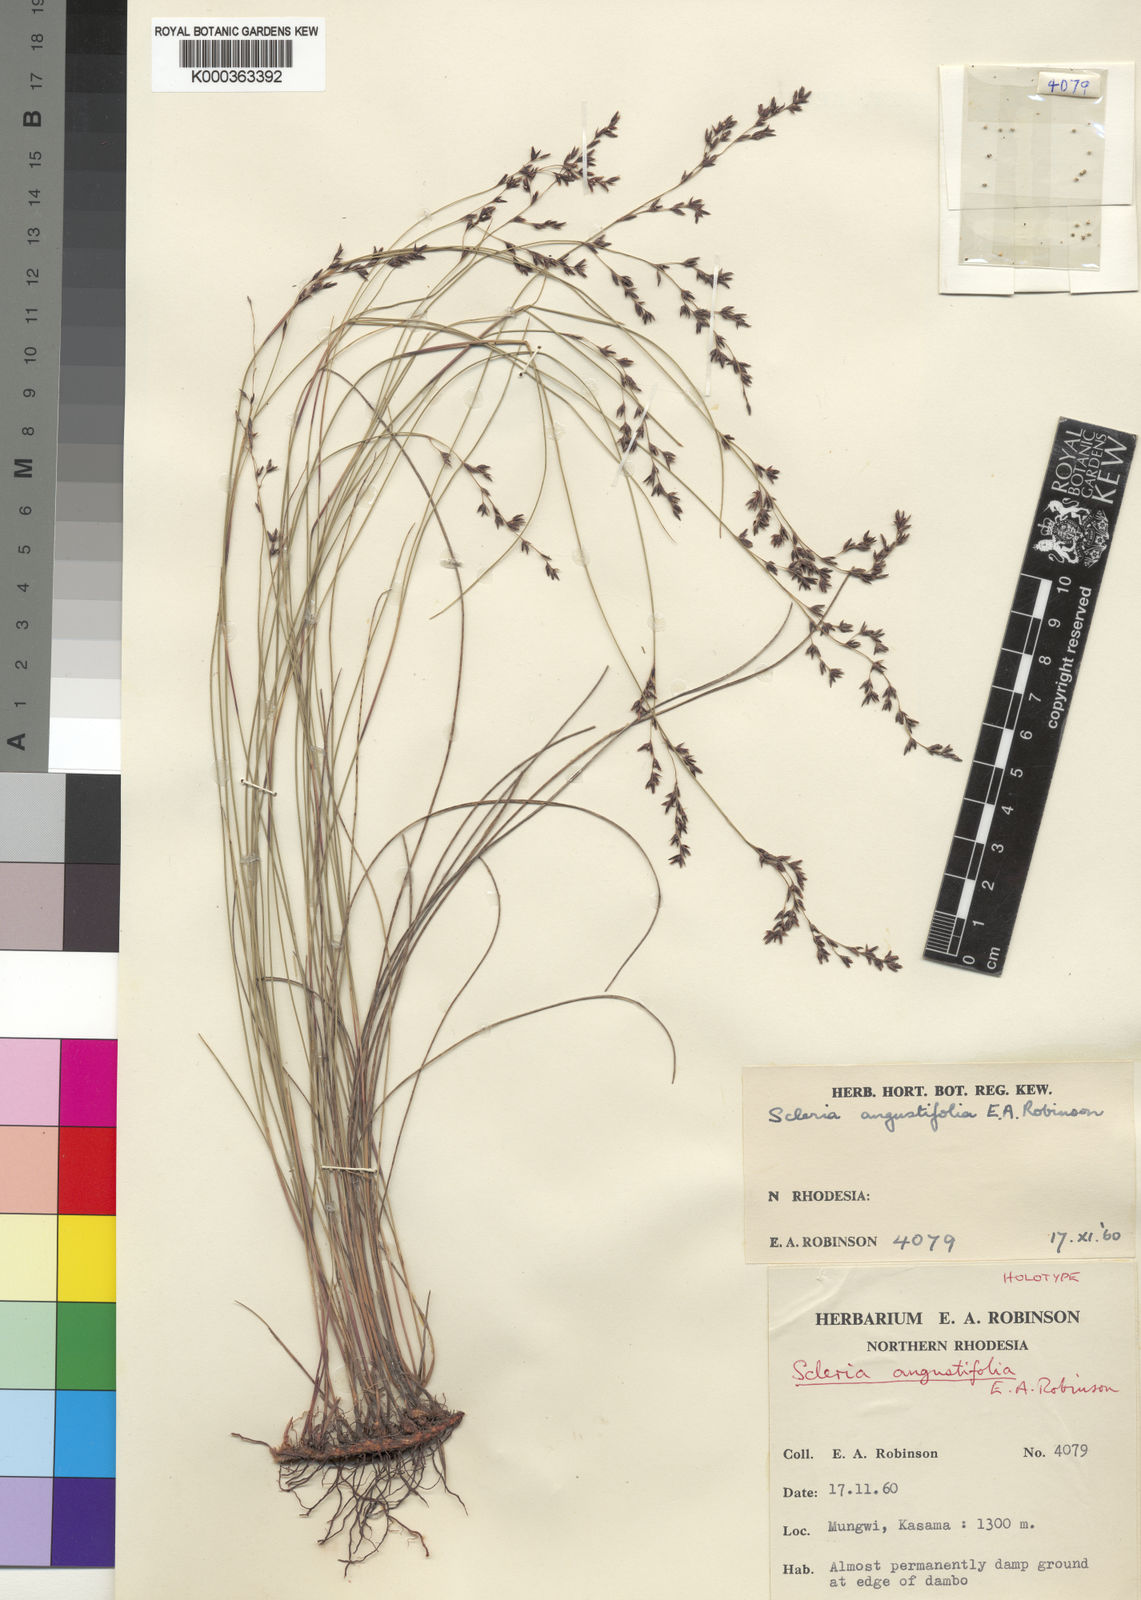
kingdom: Plantae
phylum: Tracheophyta
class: Liliopsida
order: Poales
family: Cyperaceae
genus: Scleria
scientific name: Scleria angustifolia
